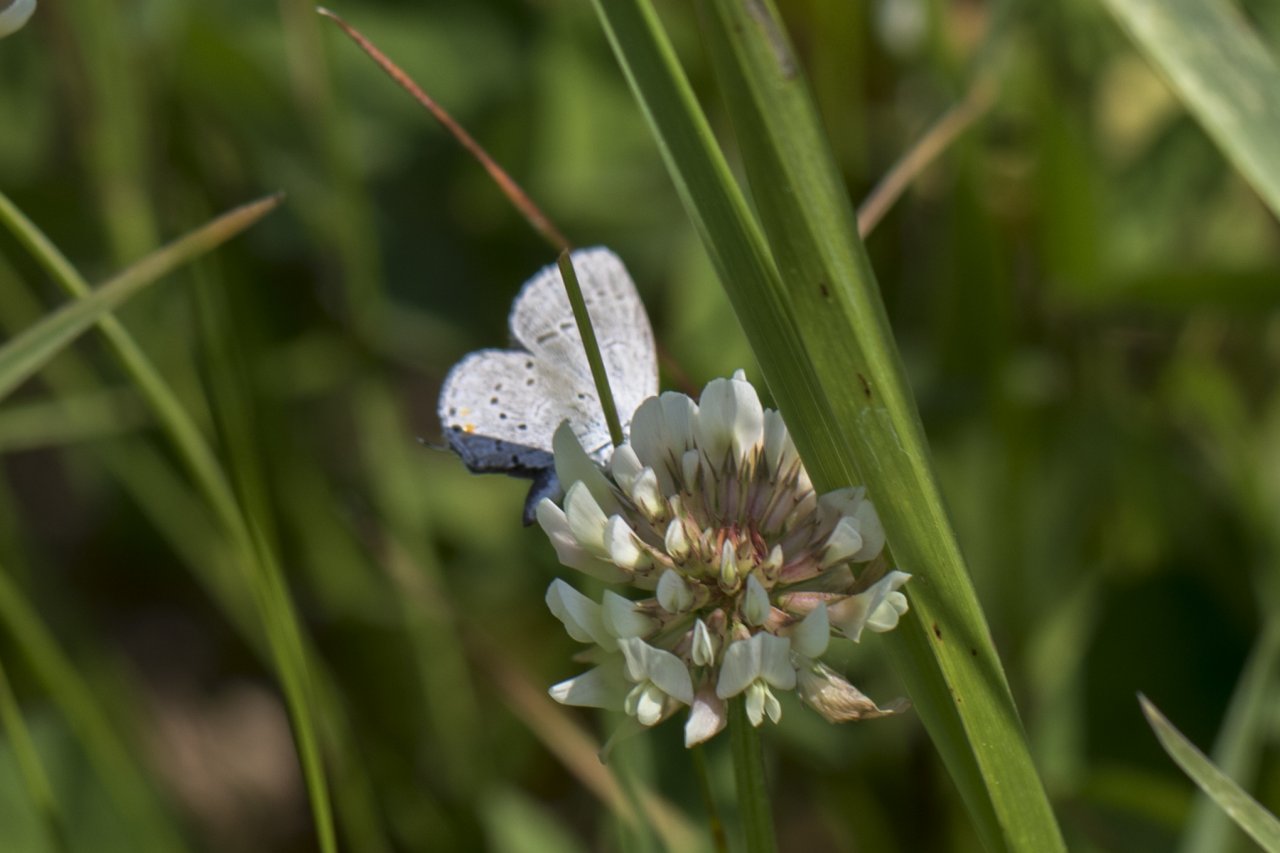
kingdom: Animalia
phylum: Arthropoda
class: Insecta
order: Lepidoptera
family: Lycaenidae
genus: Elkalyce
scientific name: Elkalyce comyntas
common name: Eastern Tailed-Blue
